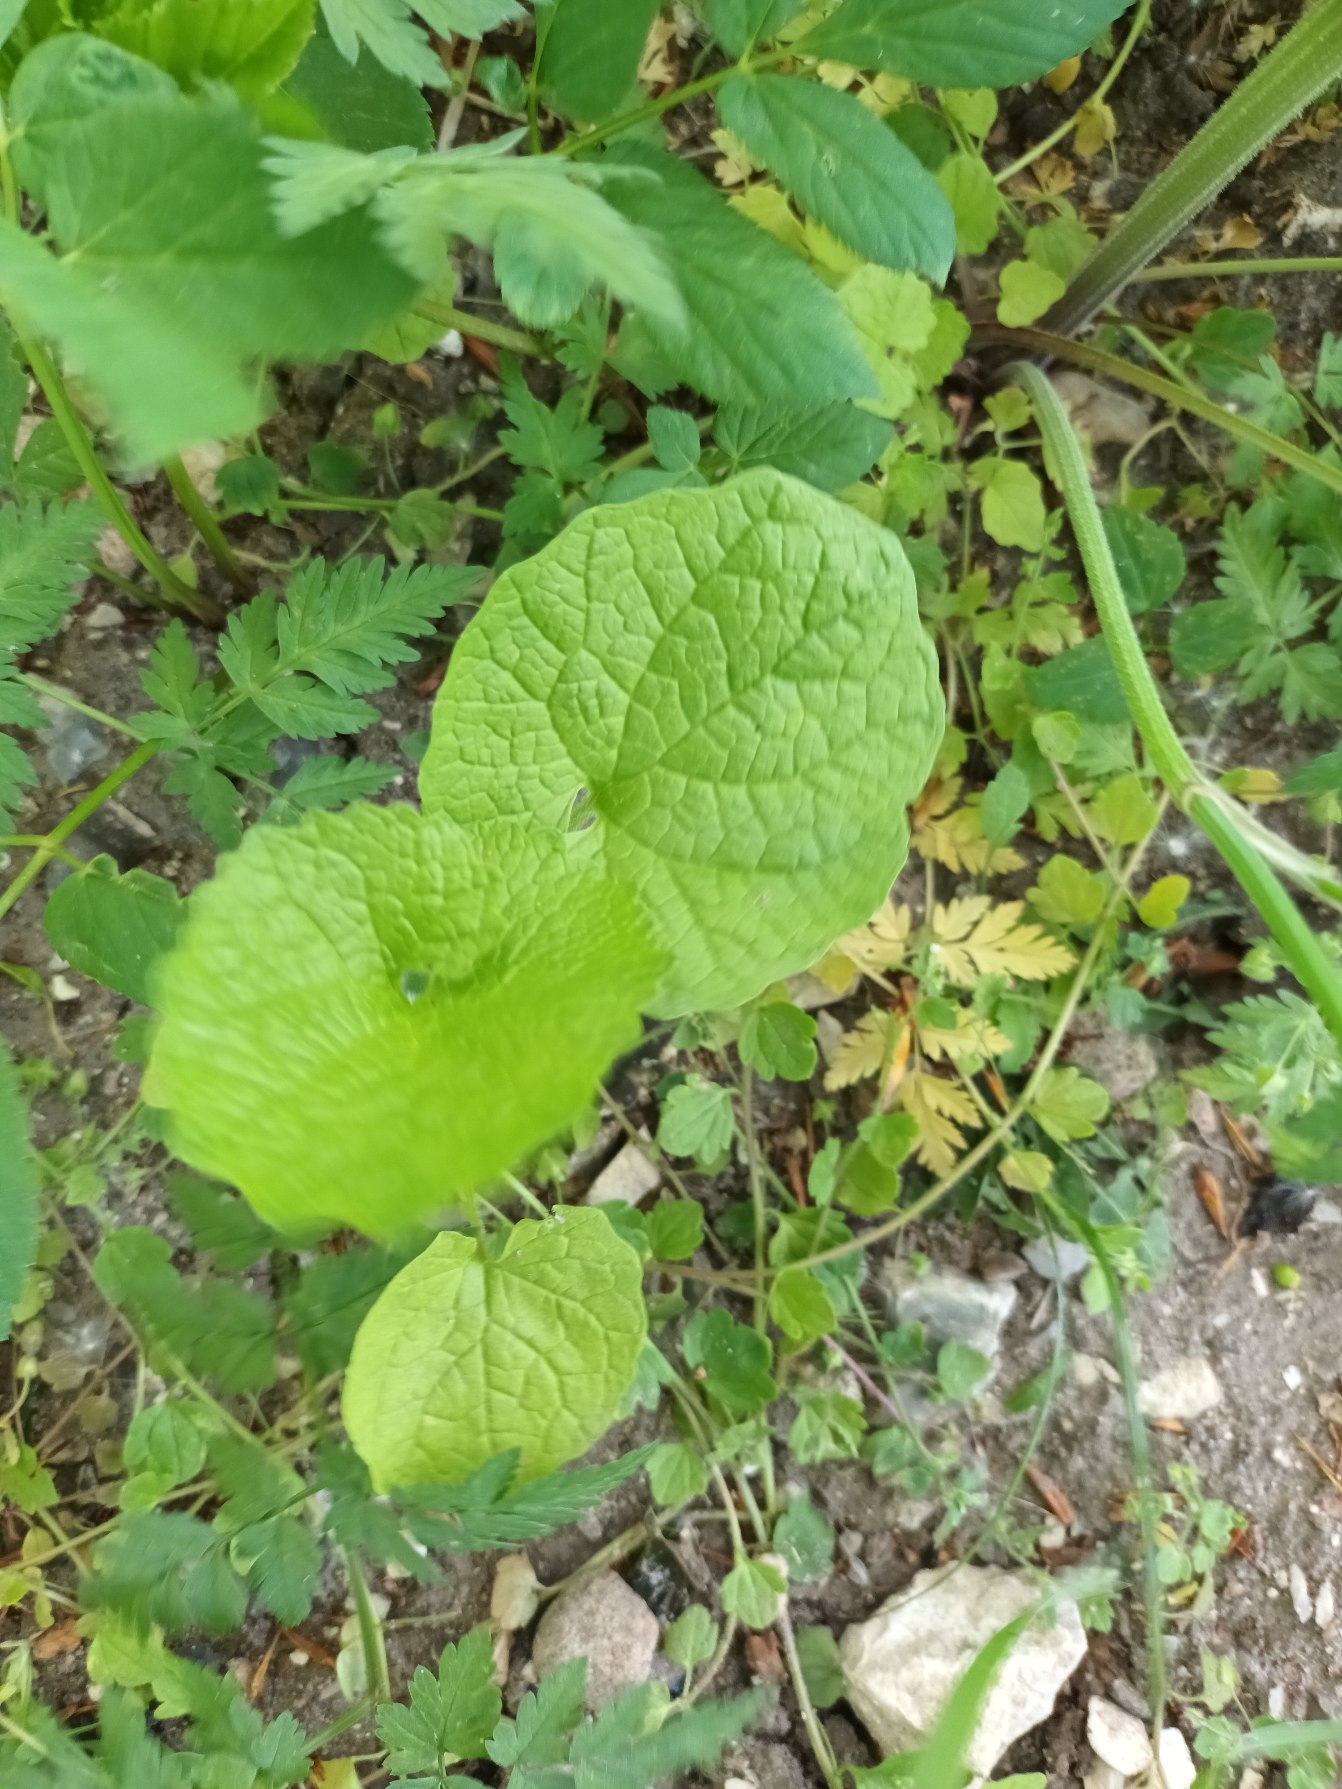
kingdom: Plantae
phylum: Tracheophyta
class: Magnoliopsida
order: Brassicales
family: Brassicaceae
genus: Alliaria
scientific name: Alliaria petiolata
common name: Løgkarse
